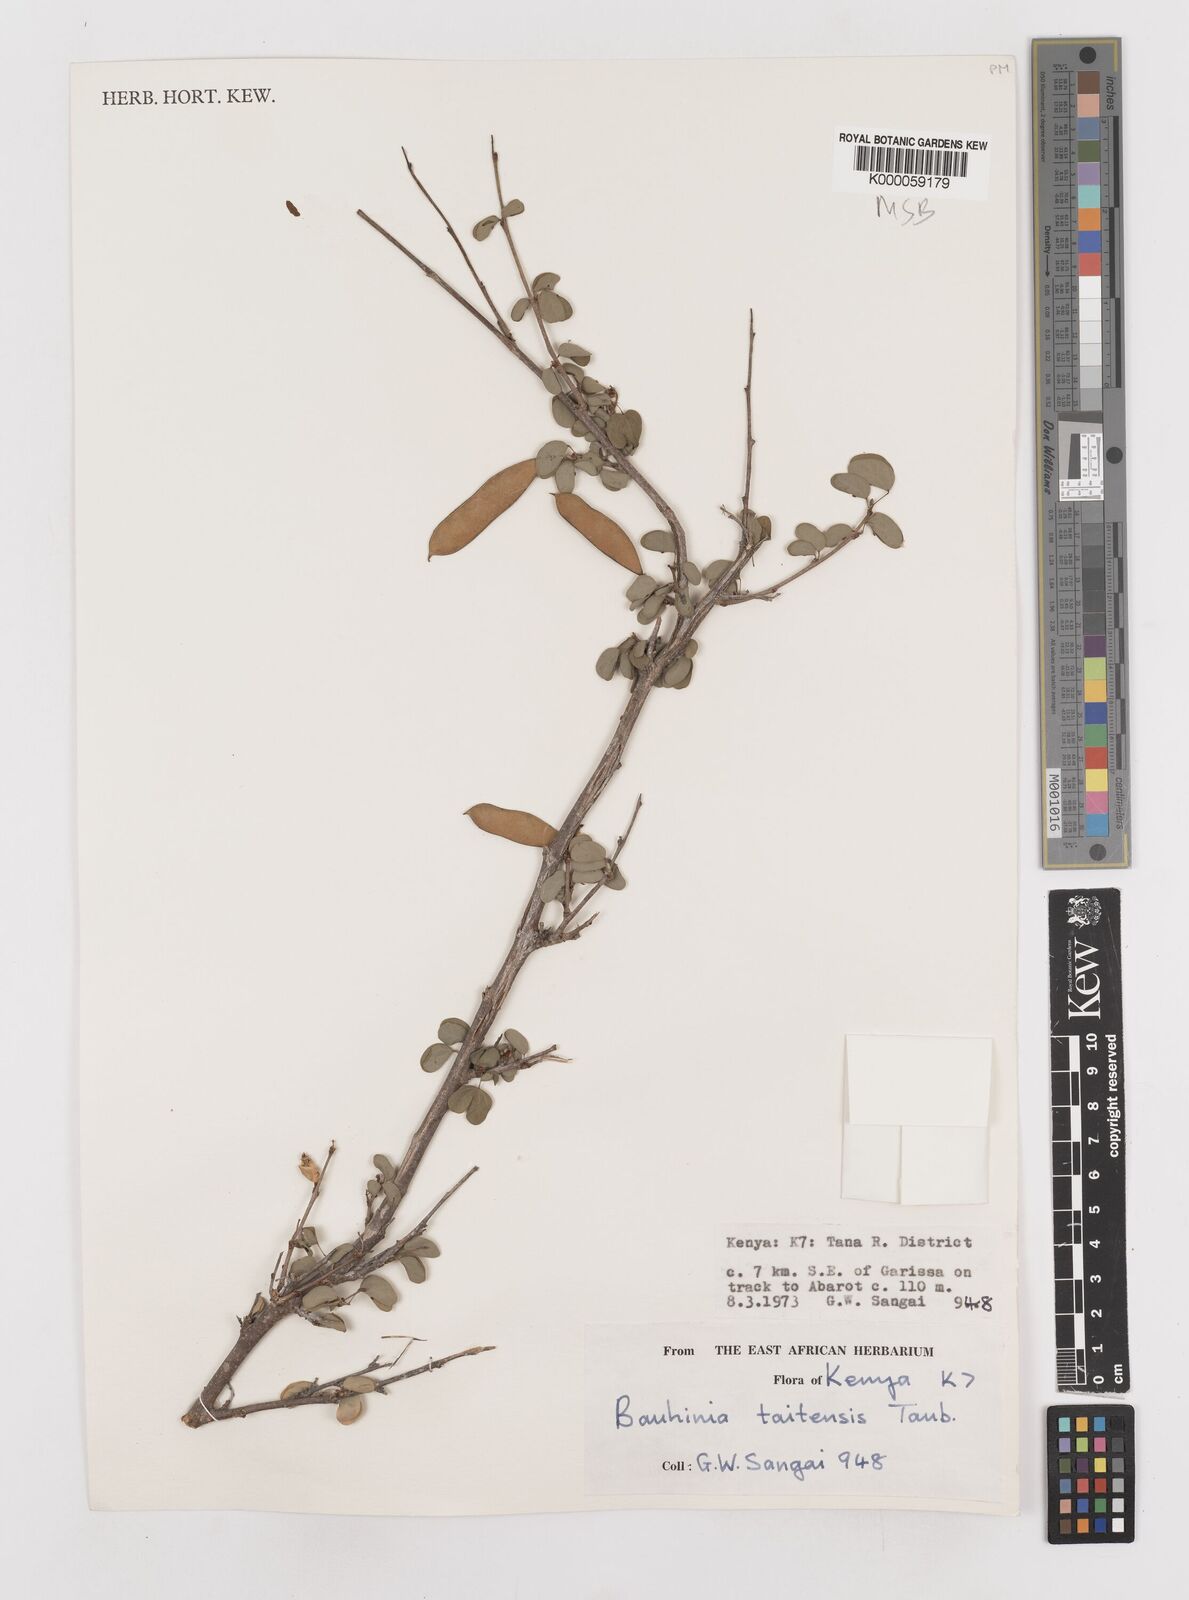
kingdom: Plantae
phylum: Tracheophyta
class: Magnoliopsida
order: Fabales
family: Fabaceae
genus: Bauhinia
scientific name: Bauhinia taitensis
